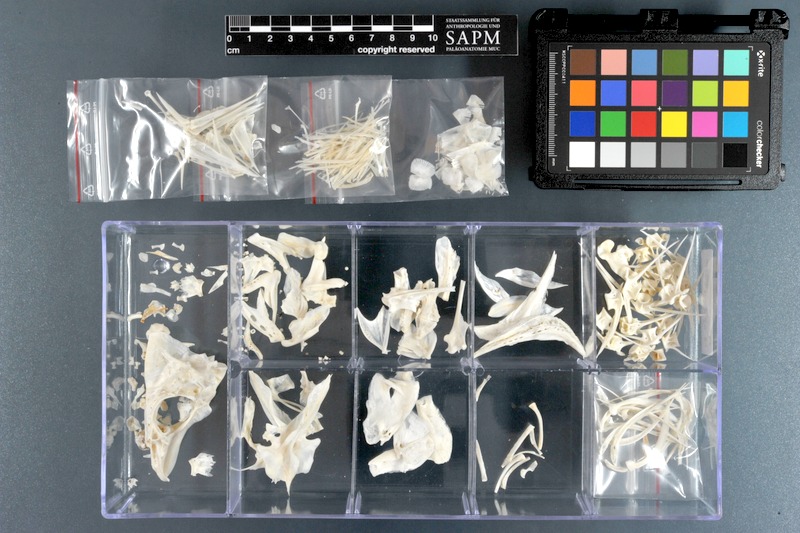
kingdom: Animalia
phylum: Chordata
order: Perciformes
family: Lethrinidae
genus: Lethrinus
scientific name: Lethrinus lentjan
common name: Redspot emperor
